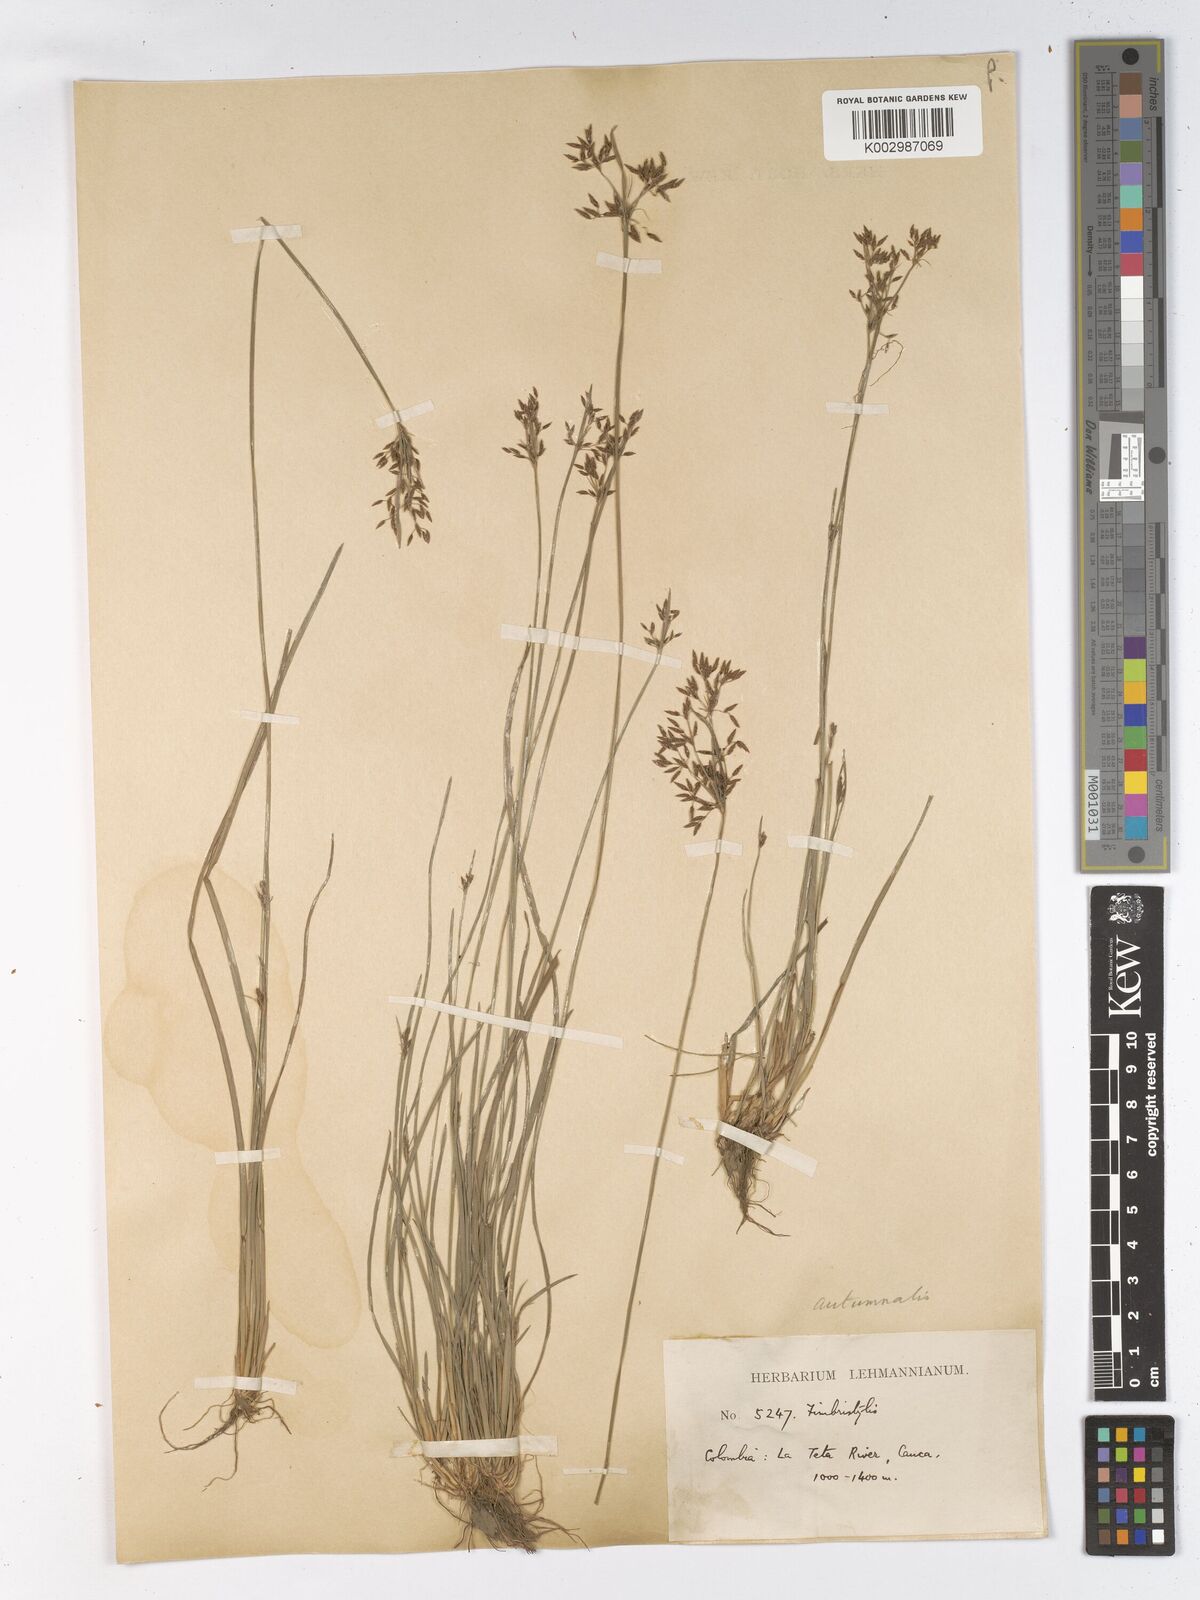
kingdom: Plantae
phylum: Tracheophyta
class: Liliopsida
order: Poales
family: Cyperaceae
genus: Fimbristylis
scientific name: Fimbristylis autumnalis
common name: Slender fimbristylis
